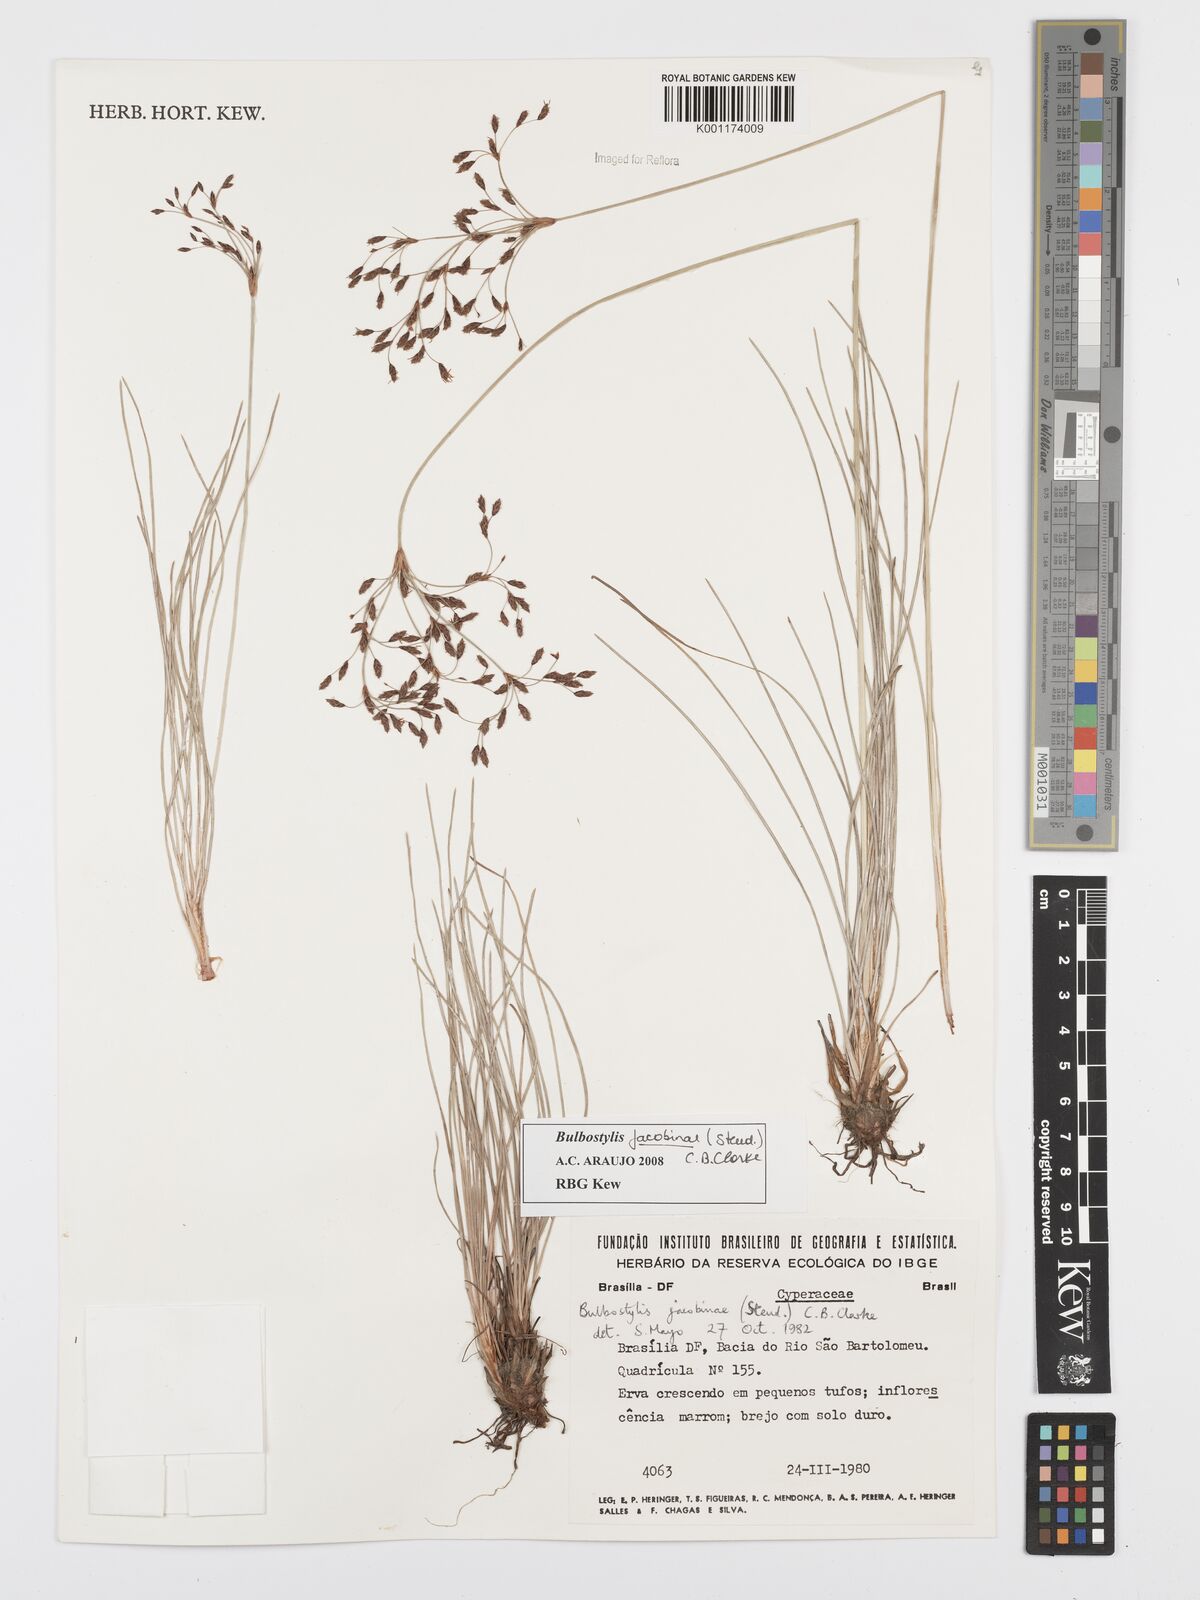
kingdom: Plantae
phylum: Tracheophyta
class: Liliopsida
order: Poales
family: Cyperaceae
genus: Bulbostylis
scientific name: Bulbostylis jacobinae
